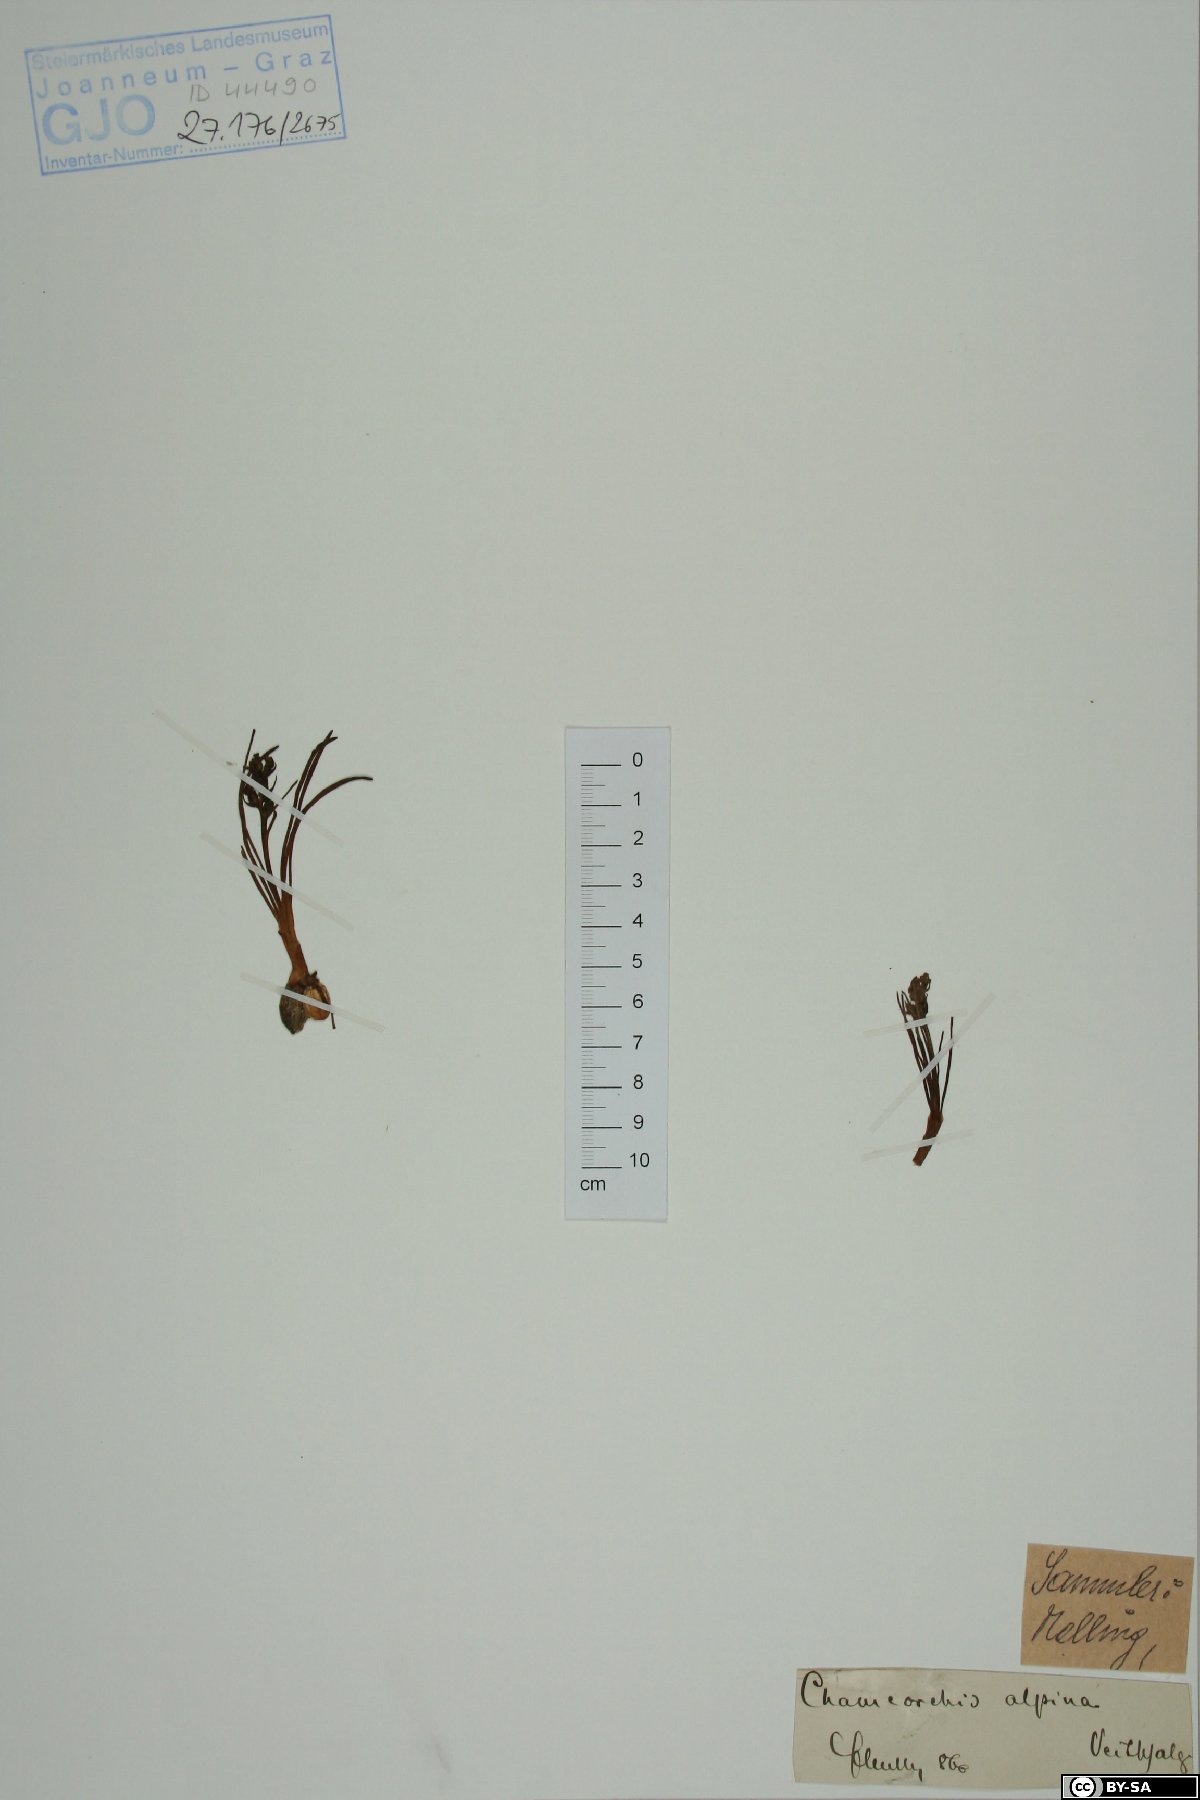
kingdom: Plantae
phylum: Tracheophyta
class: Liliopsida
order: Asparagales
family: Orchidaceae
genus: Chamorchis
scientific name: Chamorchis alpina
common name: Alpine chamorchis
